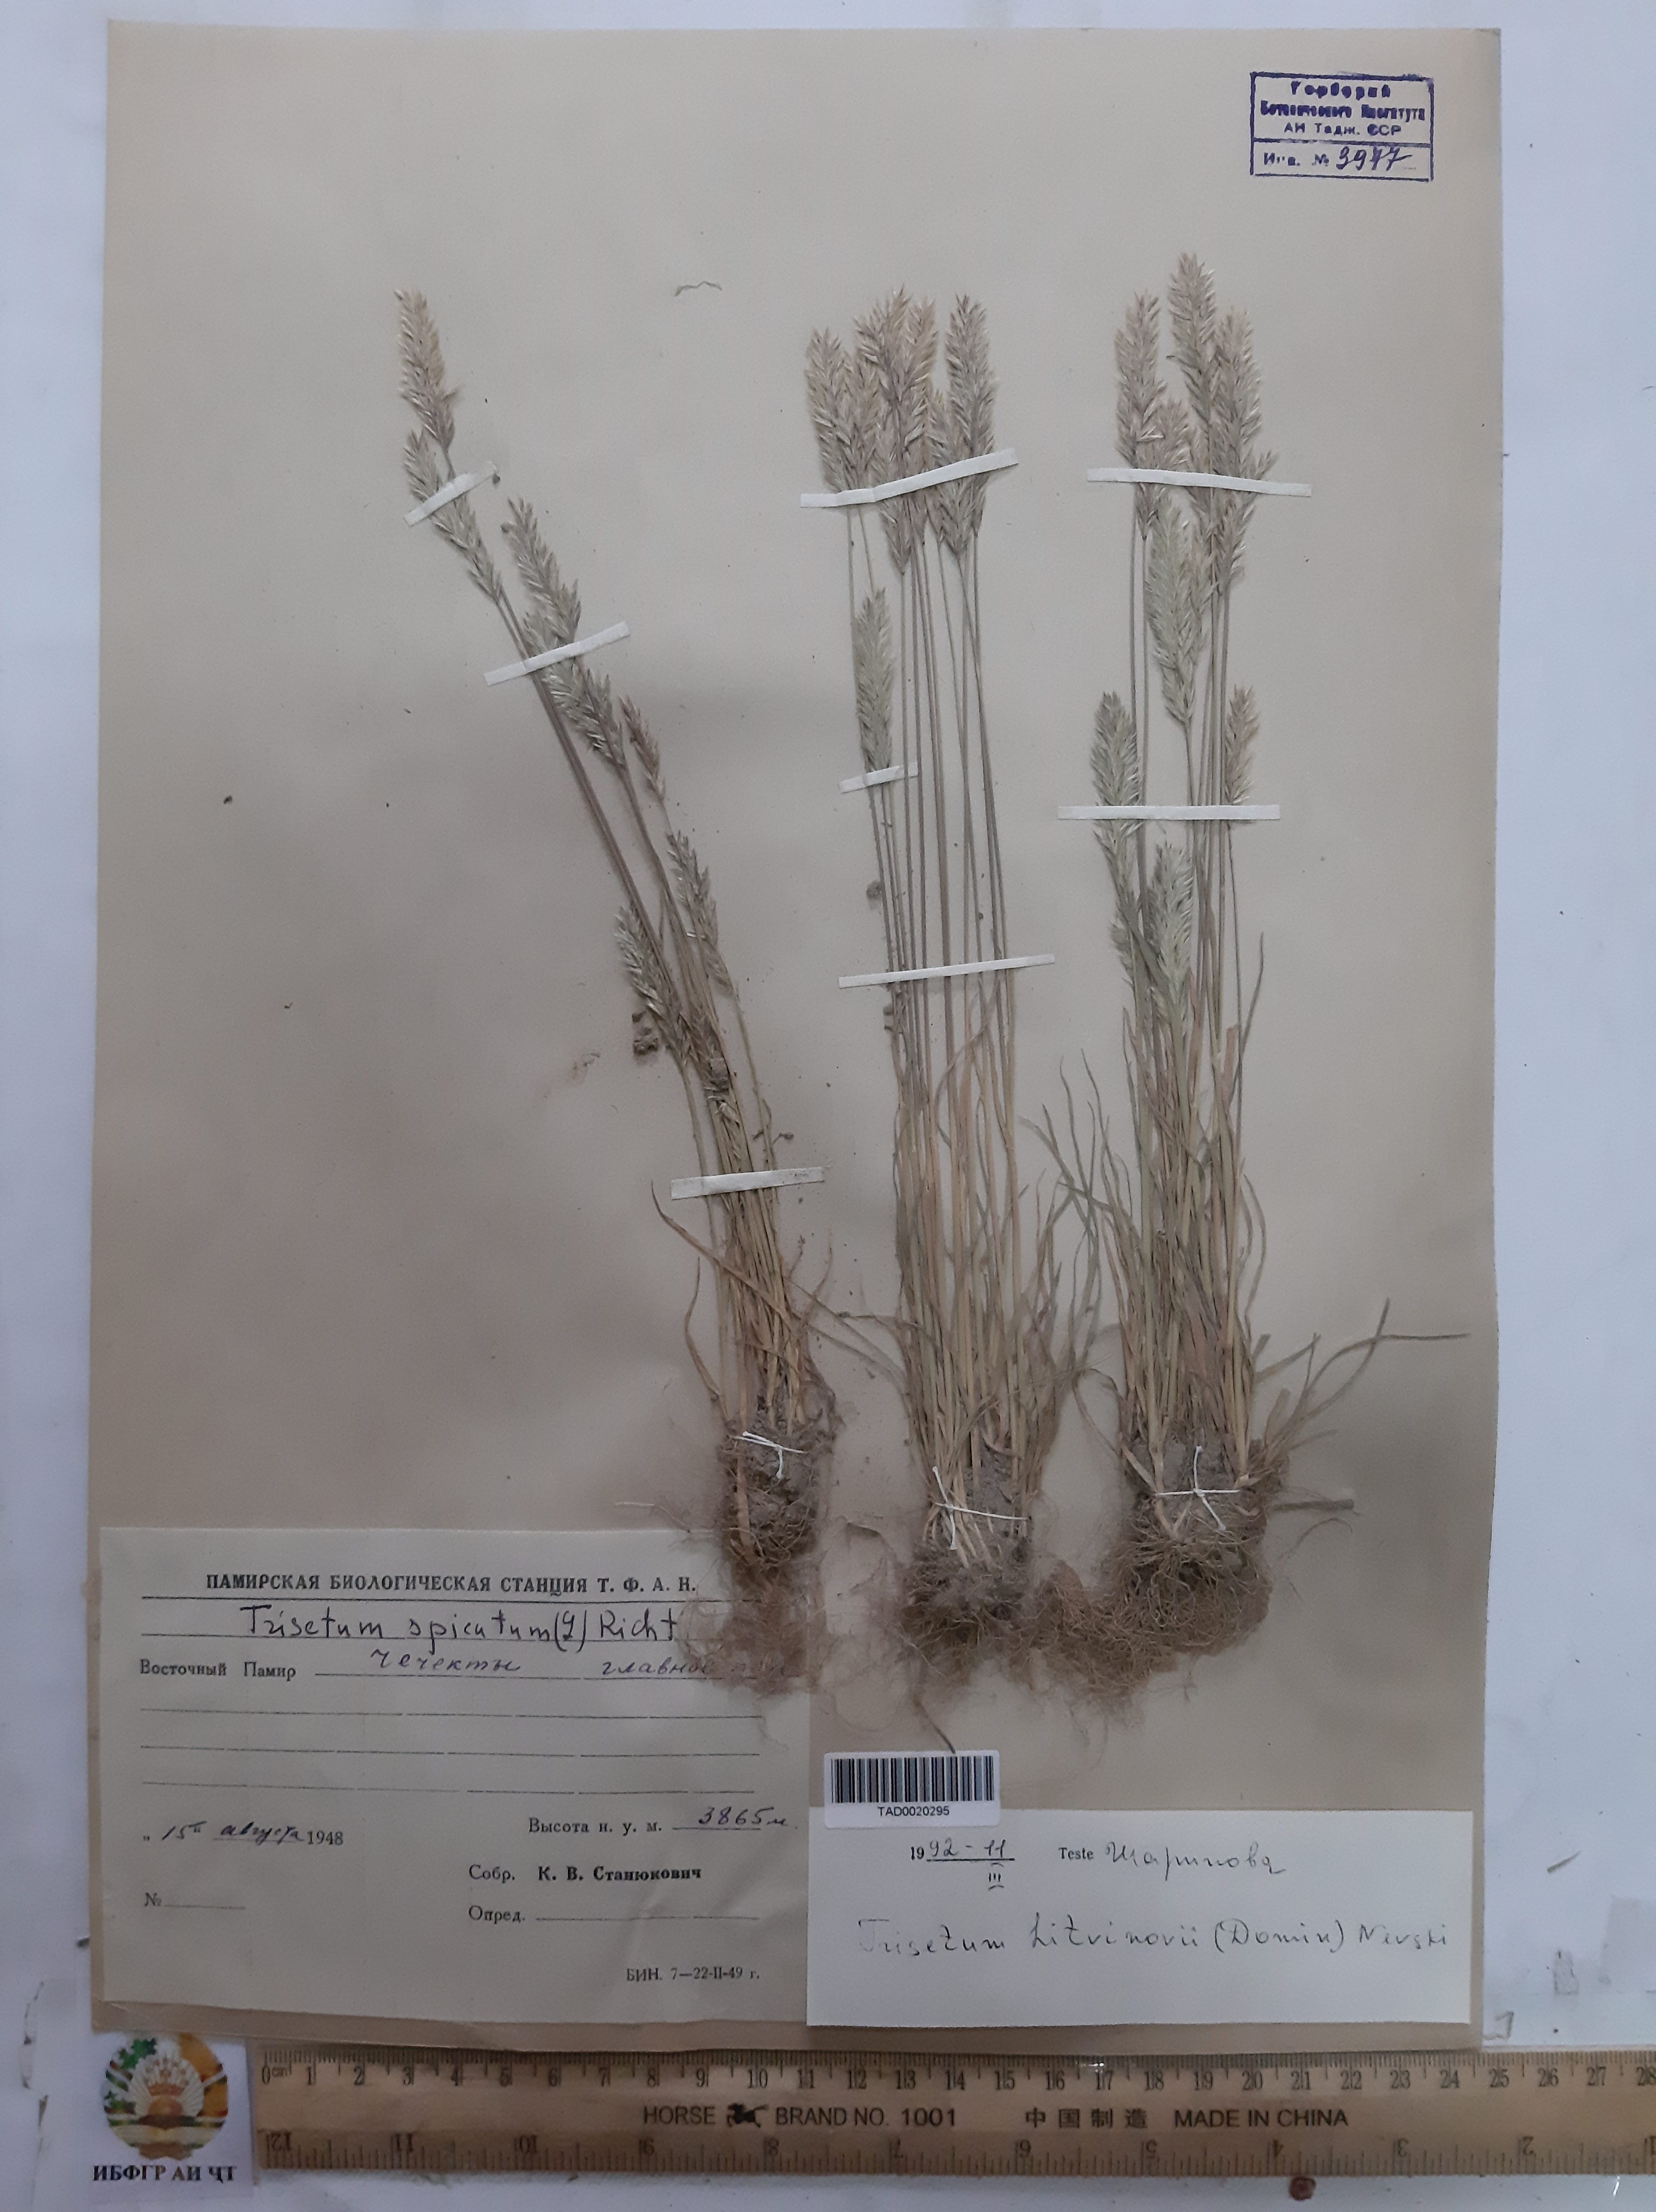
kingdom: Plantae
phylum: Tracheophyta
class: Liliopsida
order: Poales
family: Poaceae
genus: Koeleria
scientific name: Koeleria spicata
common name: Mountain trisetum
